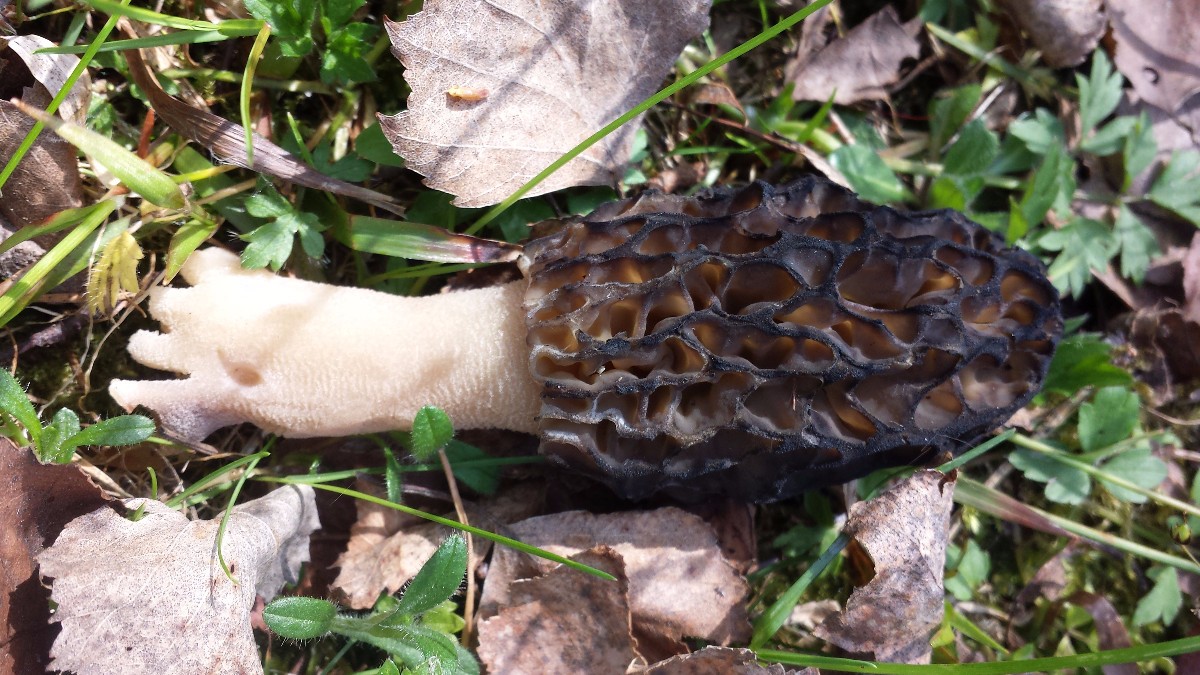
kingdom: Fungi
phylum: Ascomycota
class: Pezizomycetes
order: Pezizales
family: Morchellaceae
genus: Morchella
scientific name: Morchella esculenta
